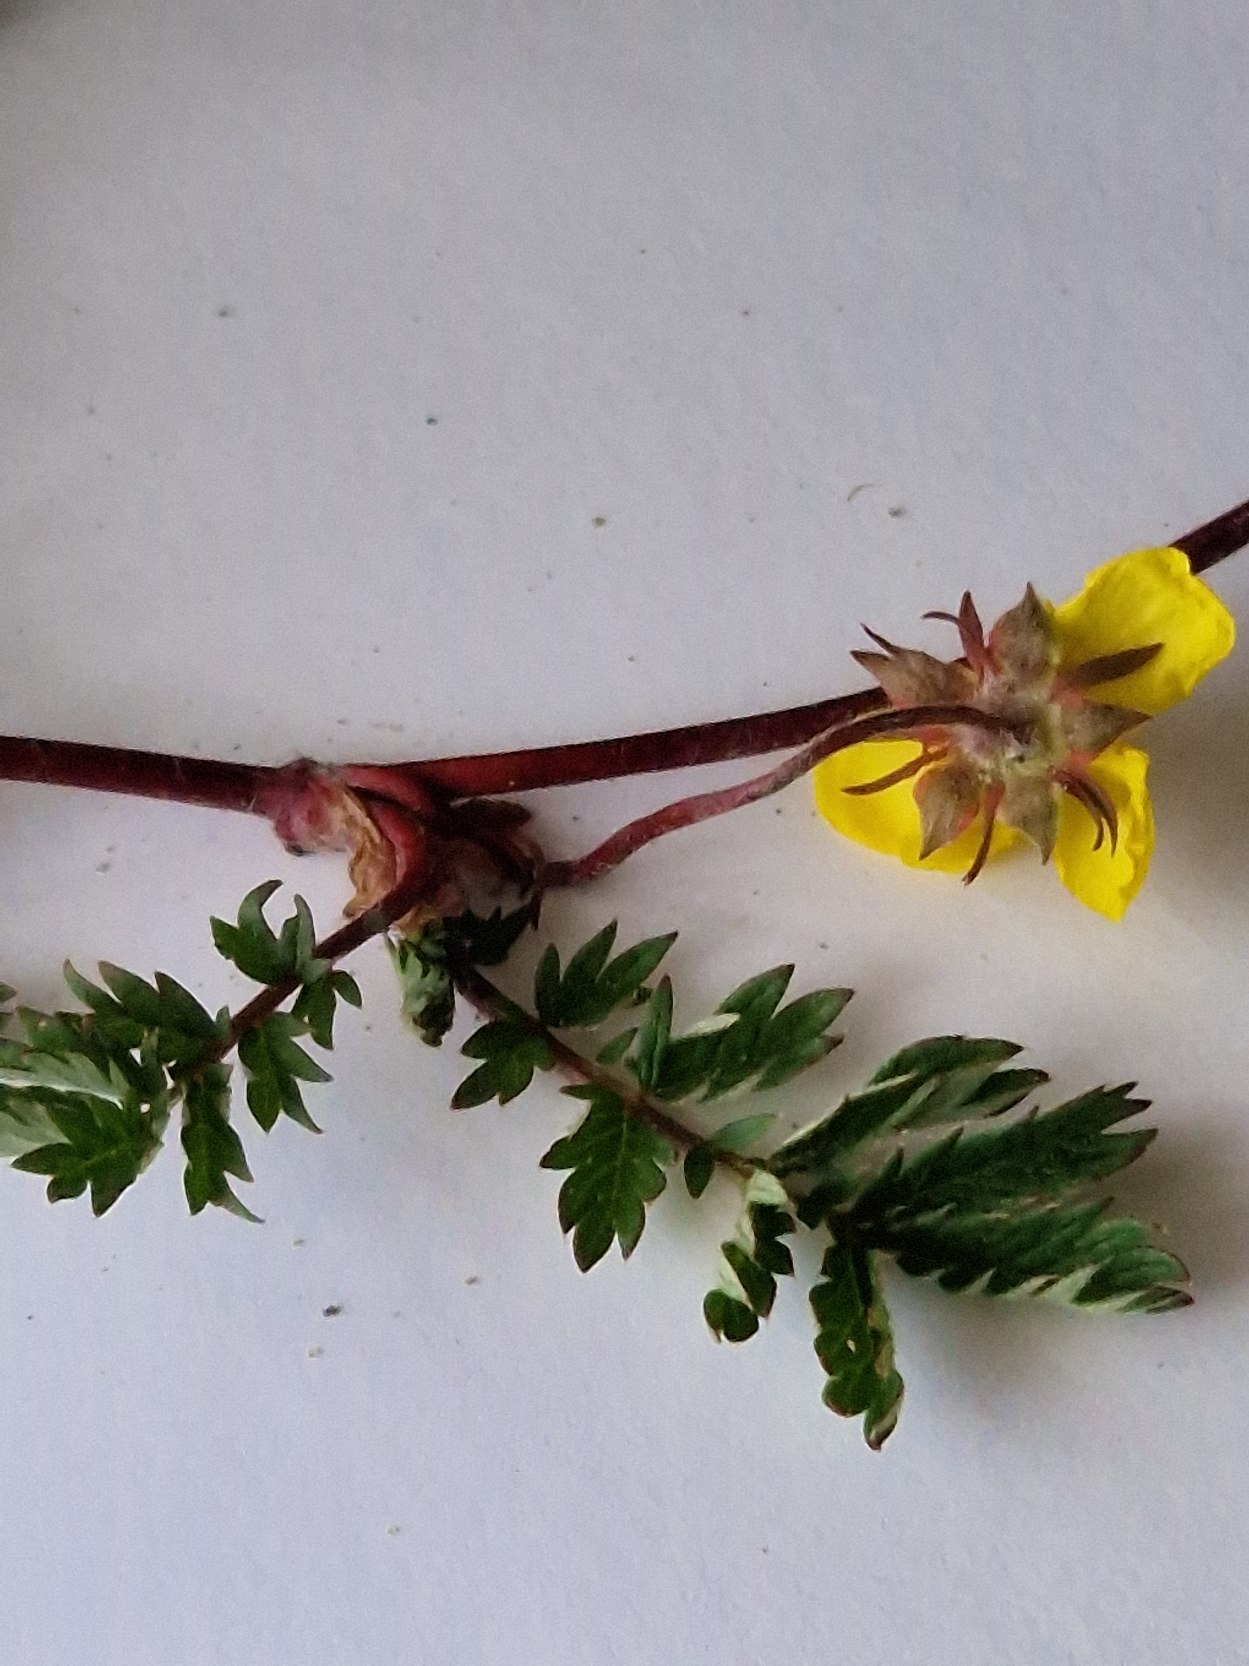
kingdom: Plantae
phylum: Tracheophyta
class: Magnoliopsida
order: Rosales
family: Rosaceae
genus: Argentina
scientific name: Argentina anserina
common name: Gåsepotentil
